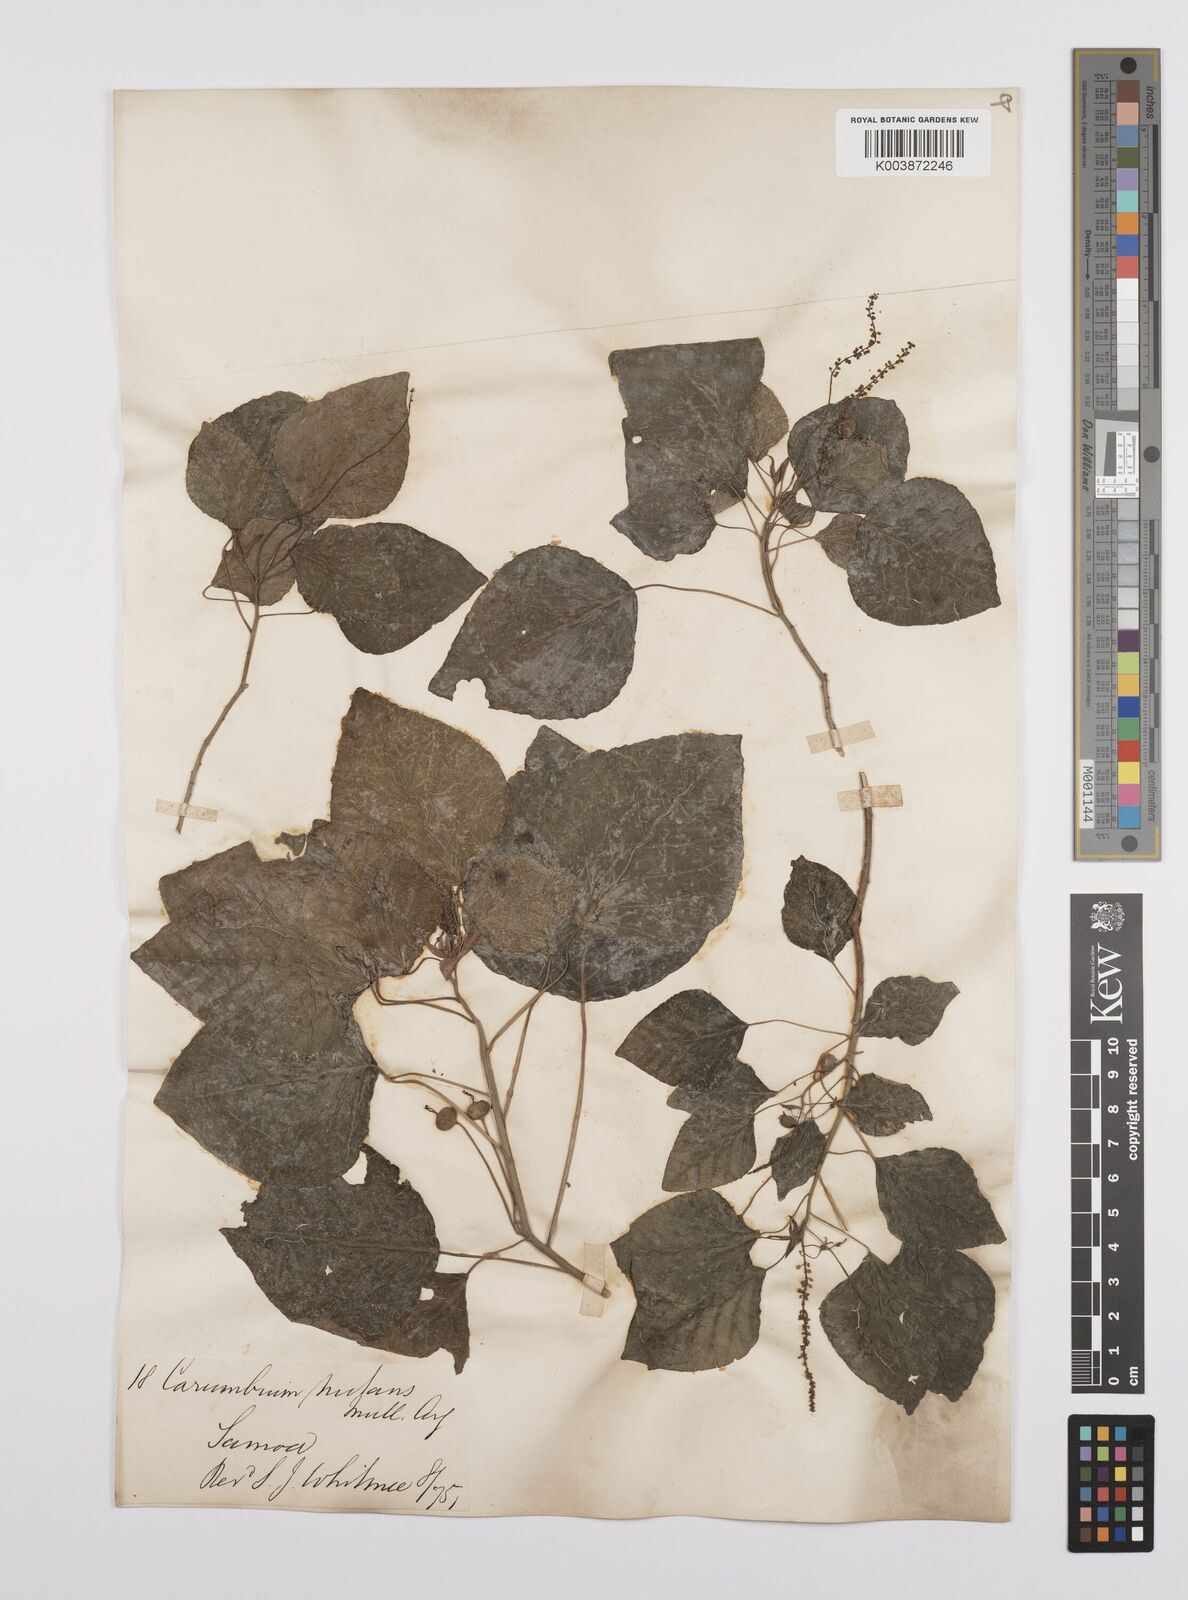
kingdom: Plantae
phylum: Tracheophyta
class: Magnoliopsida
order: Malpighiales
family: Euphorbiaceae
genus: Homalanthus
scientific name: Homalanthus nutans
